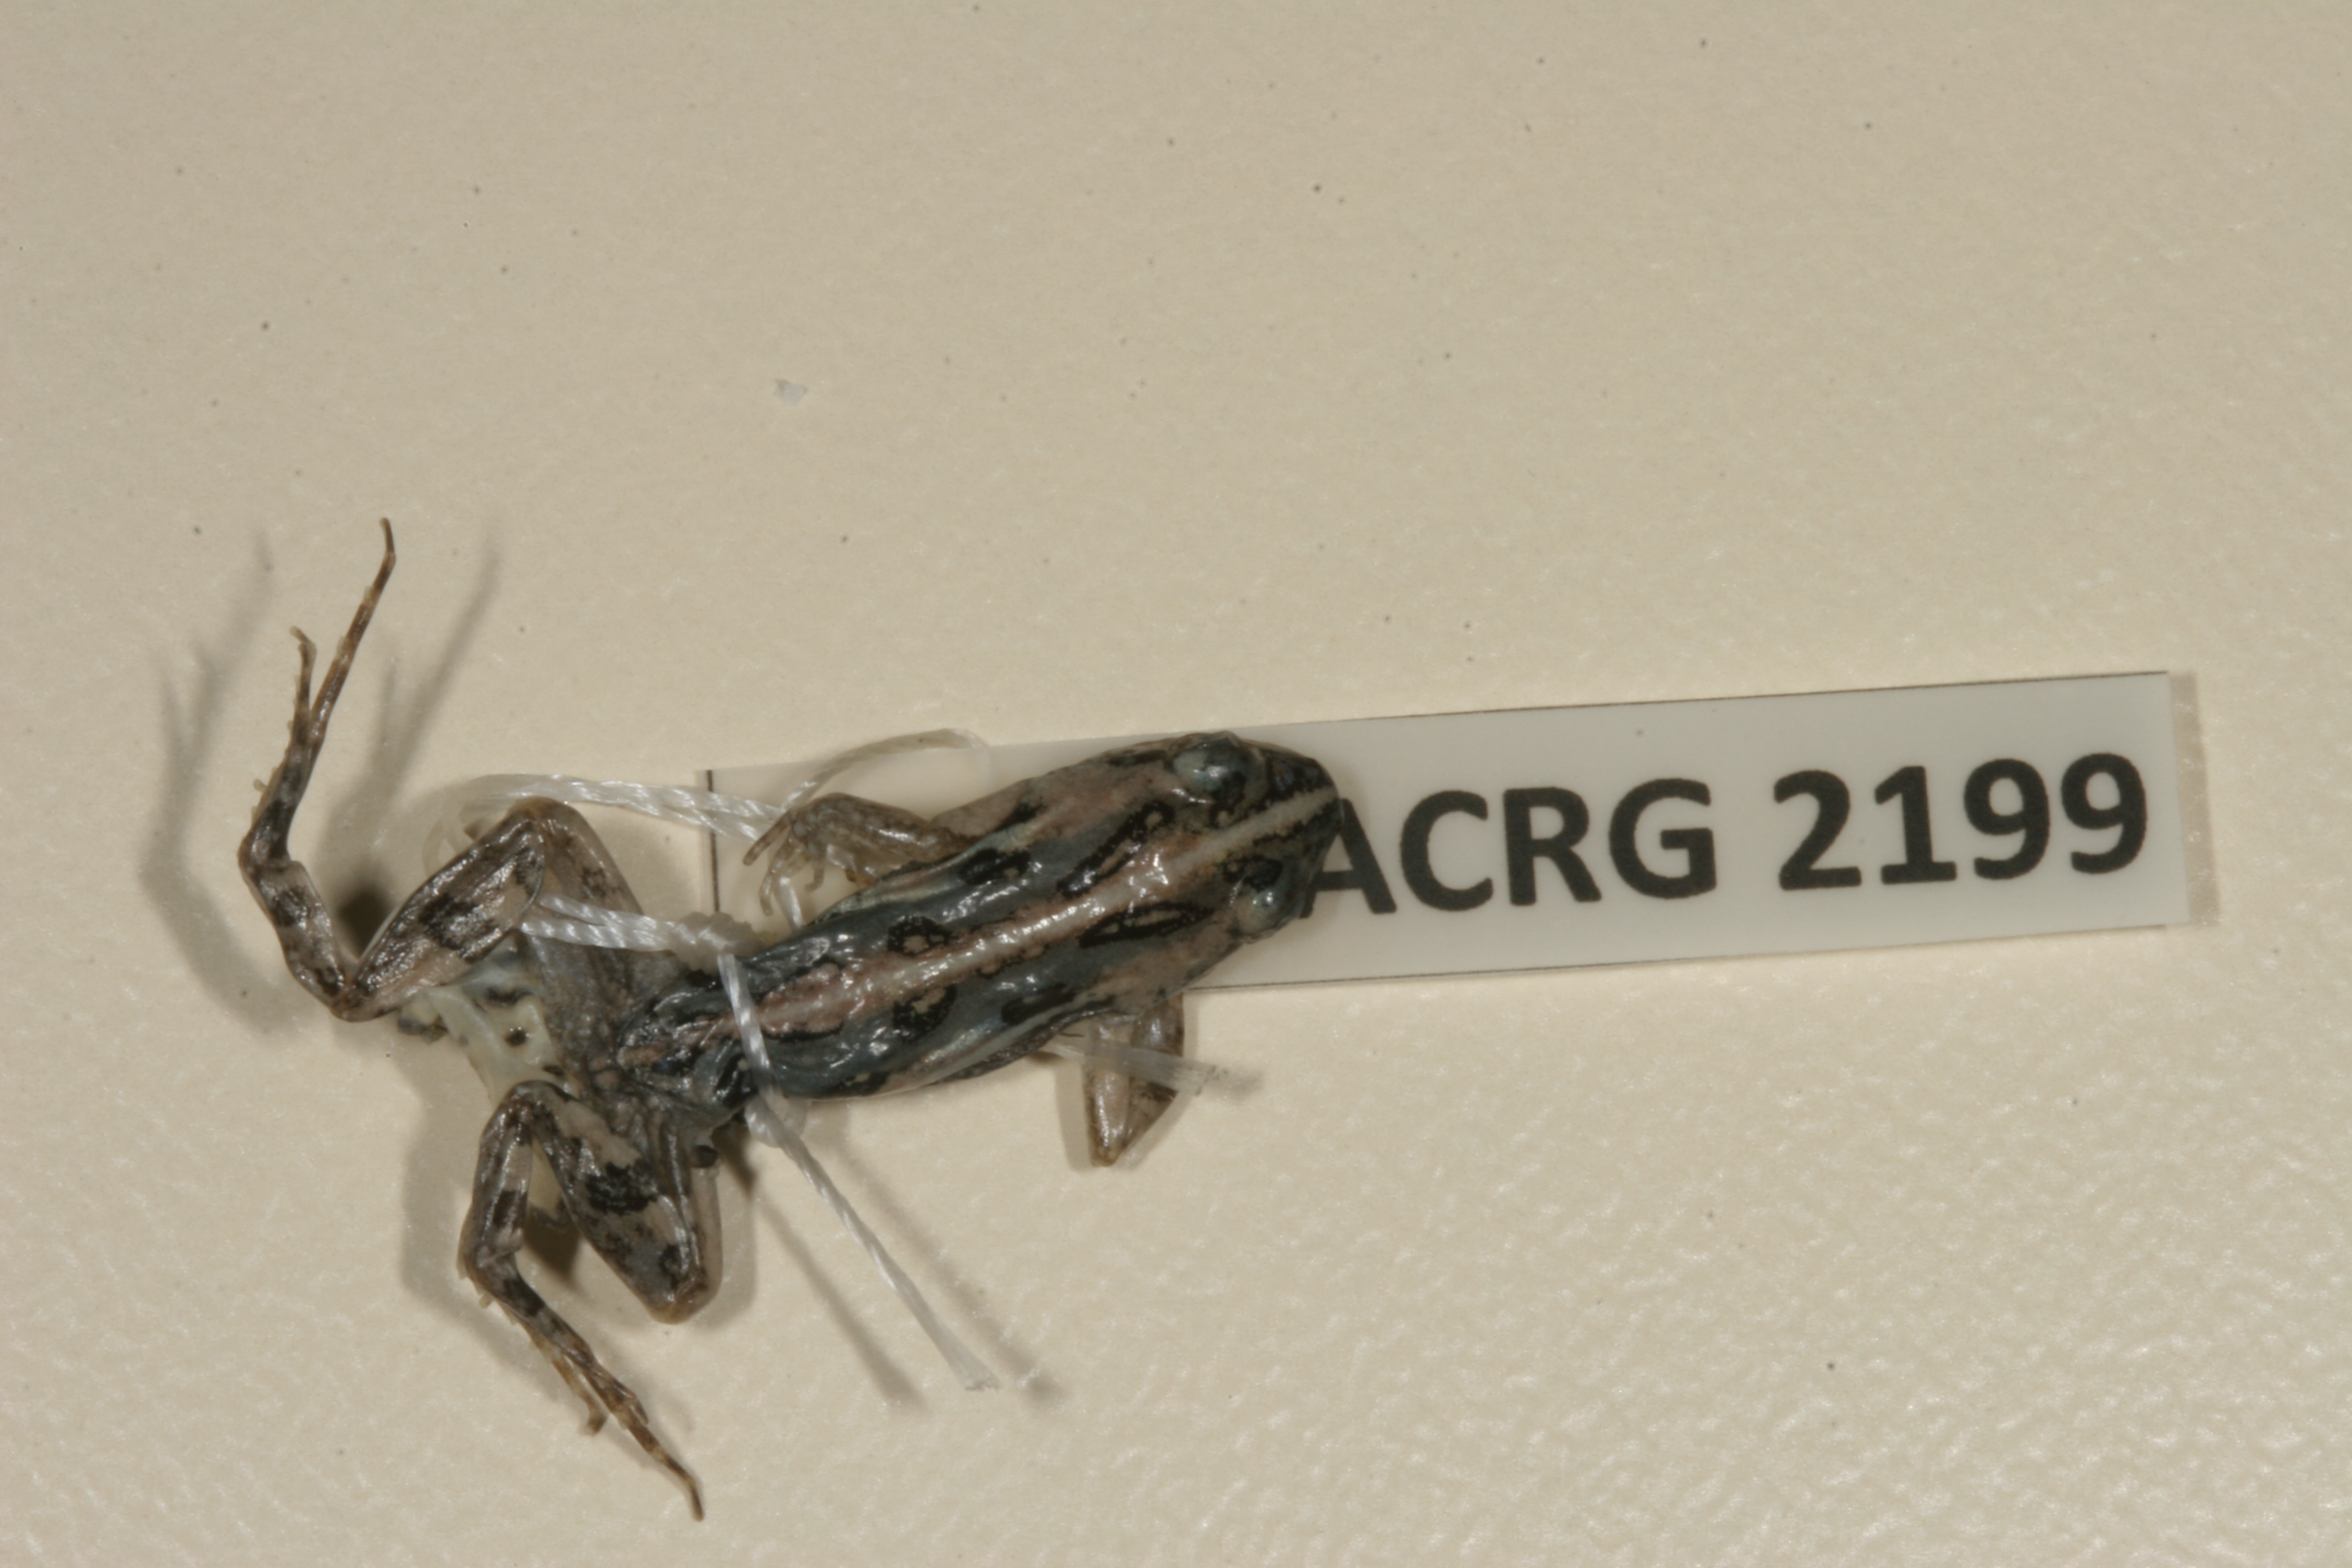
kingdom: Animalia
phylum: Chordata
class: Amphibia
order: Anura
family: Pyxicephalidae
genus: Cacosternum
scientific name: Cacosternum boettgeri
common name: Boettger's frog
